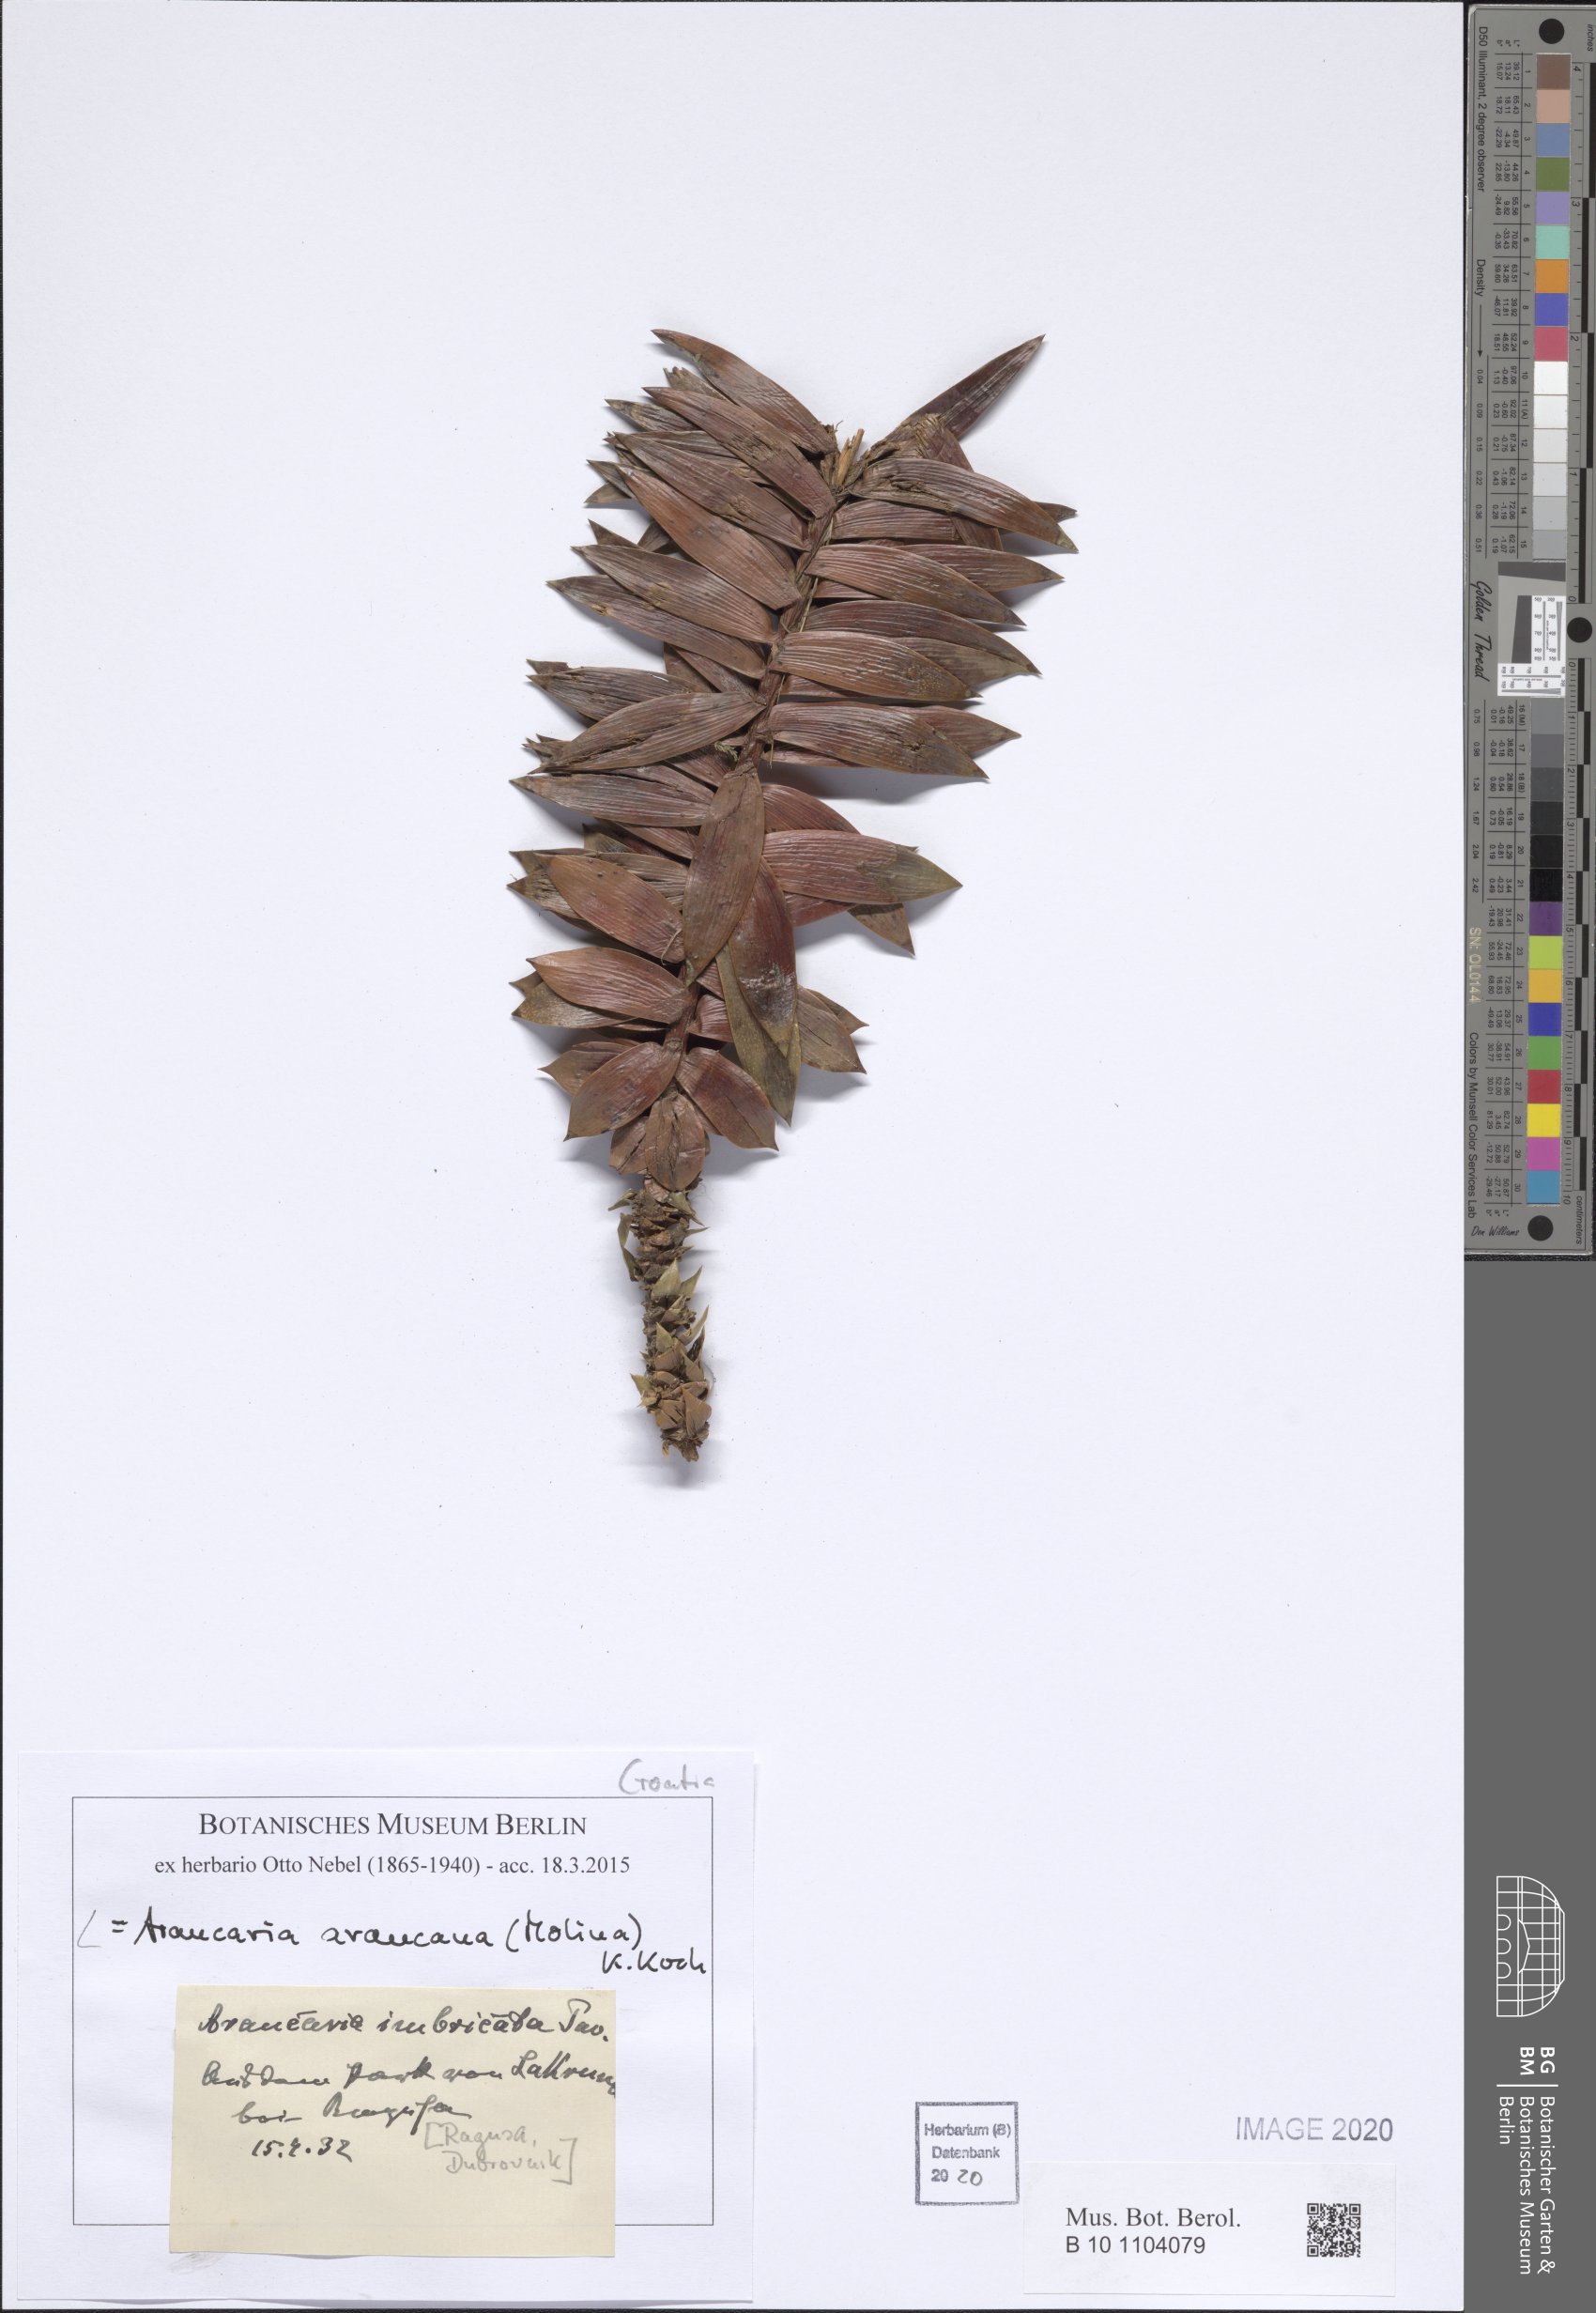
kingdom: Plantae
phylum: Tracheophyta
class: Pinopsida
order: Pinales
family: Araucariaceae
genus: Araucaria
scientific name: Araucaria araucana
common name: Monkey-puzzle
